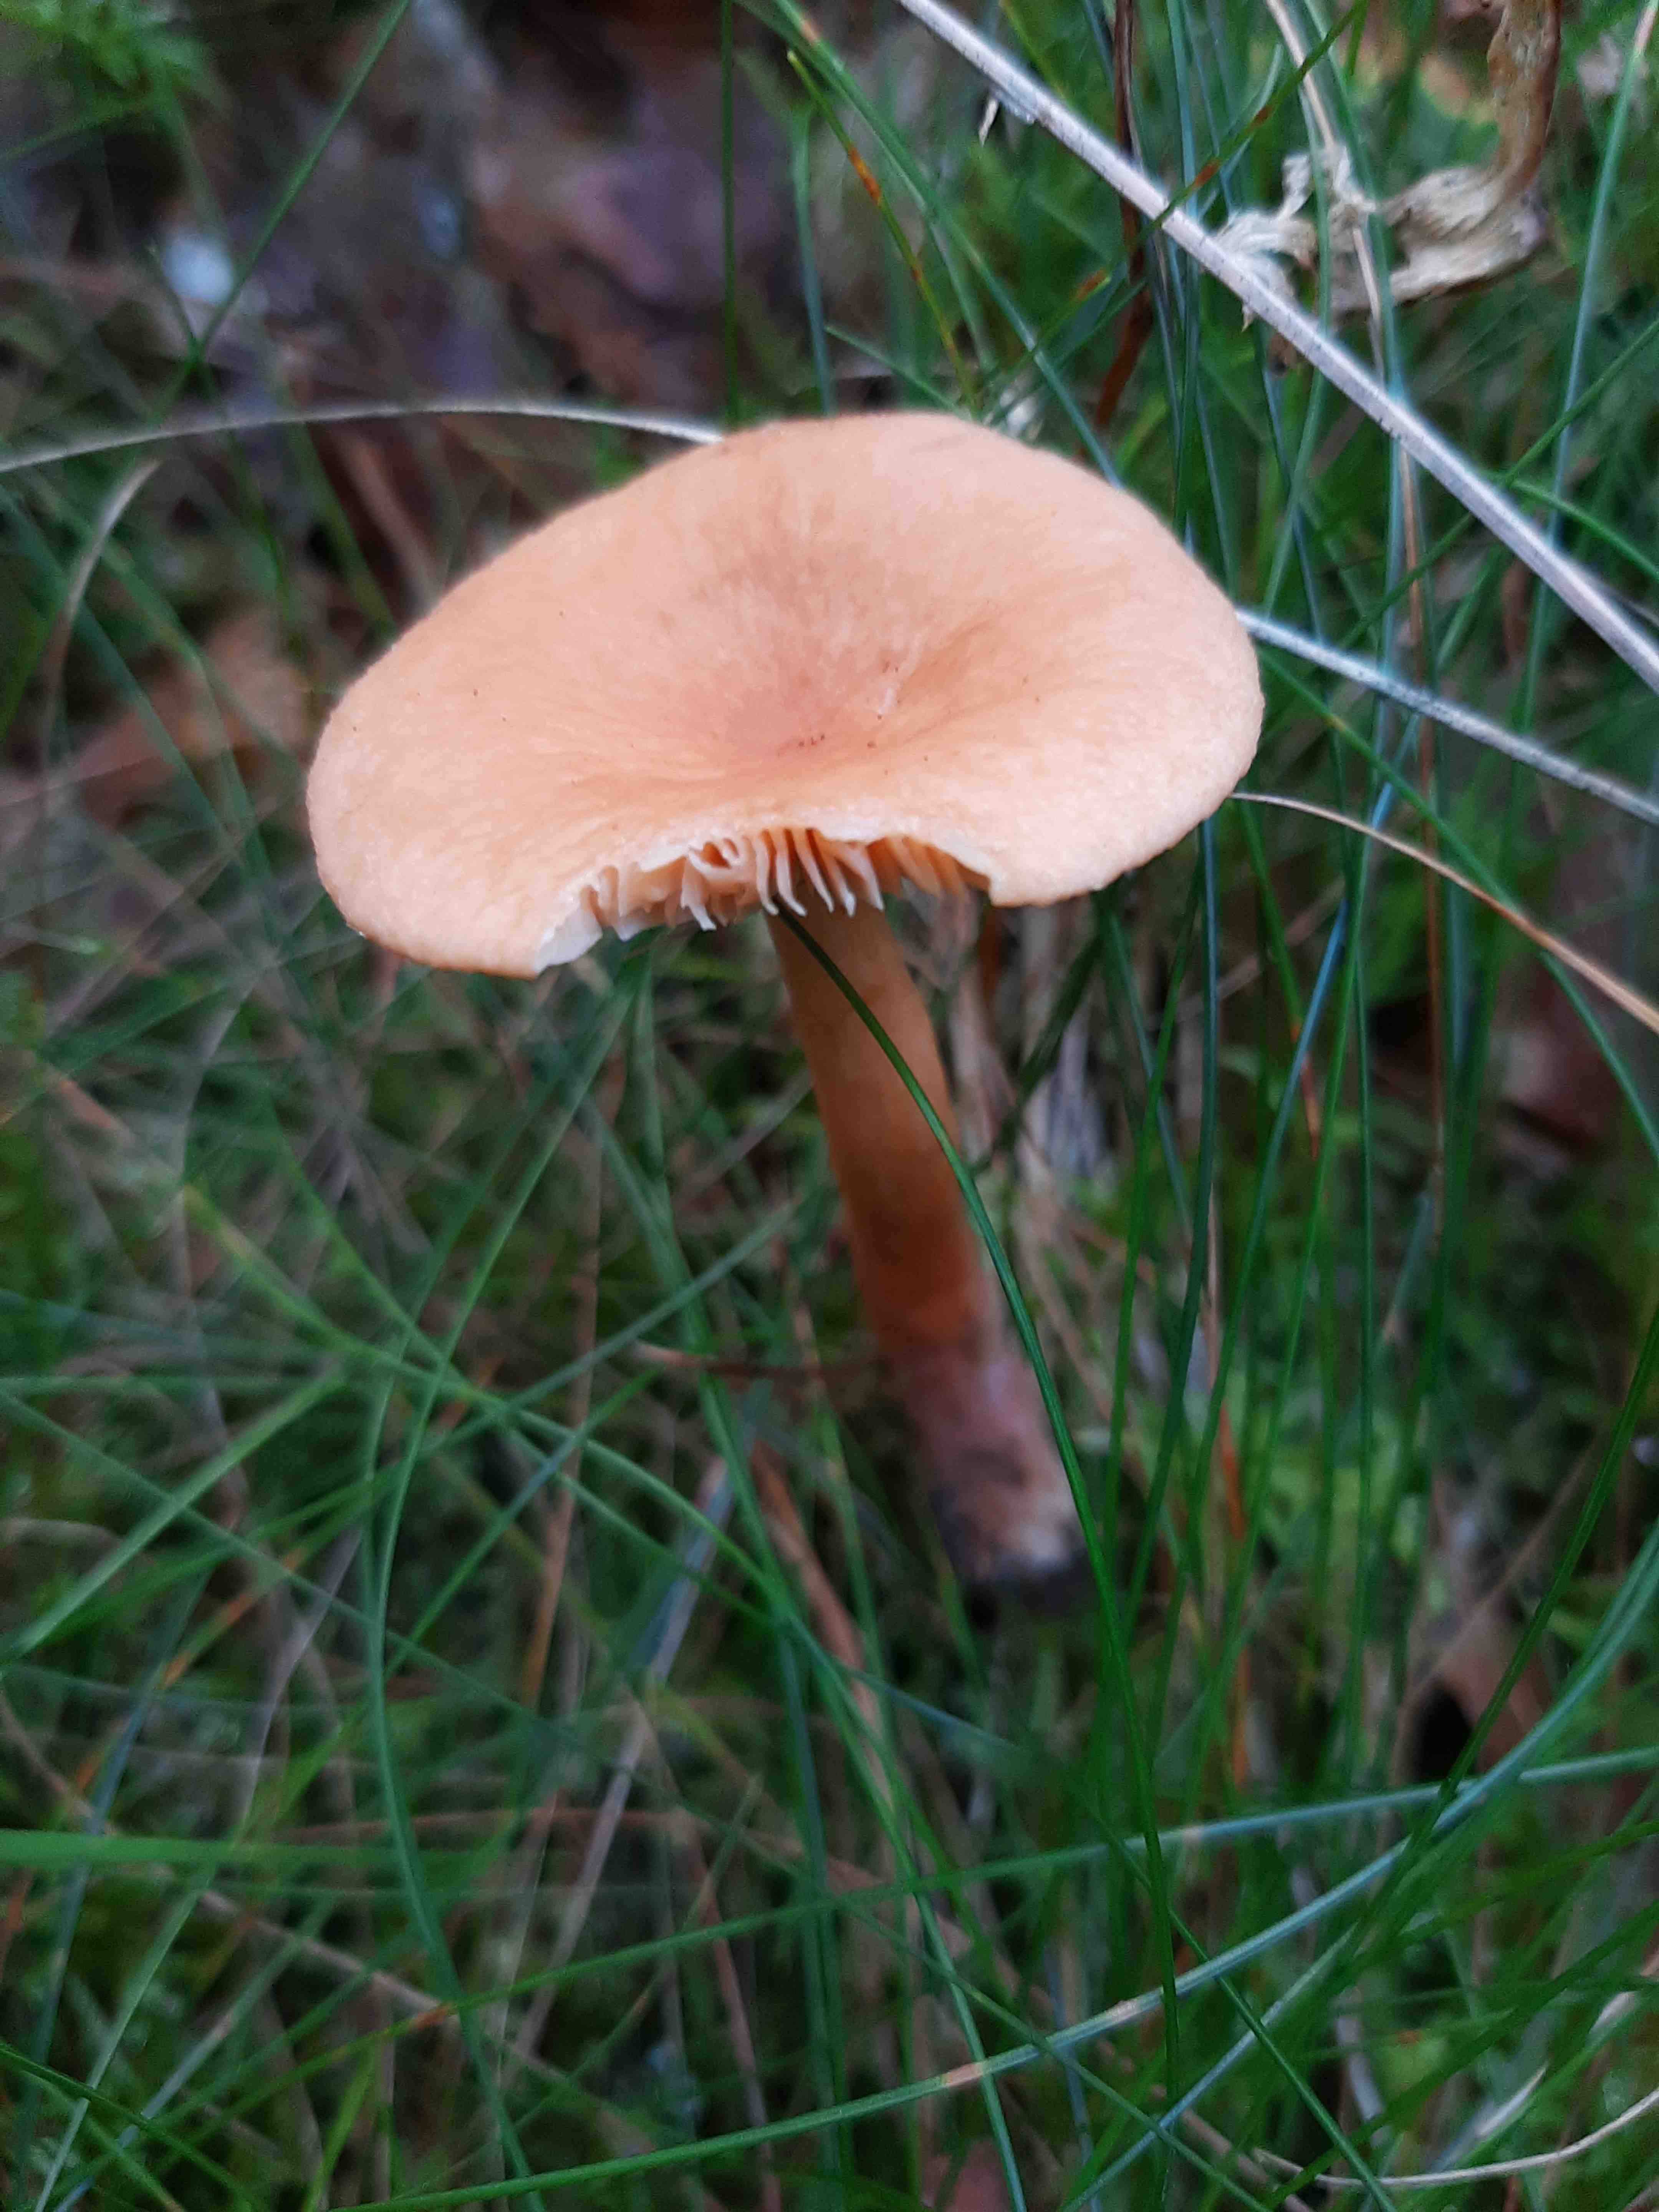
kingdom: Fungi
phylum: Basidiomycota
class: Agaricomycetes
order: Russulales
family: Russulaceae
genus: Lactarius
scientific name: Lactarius tabidus
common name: rynket mælkehat
